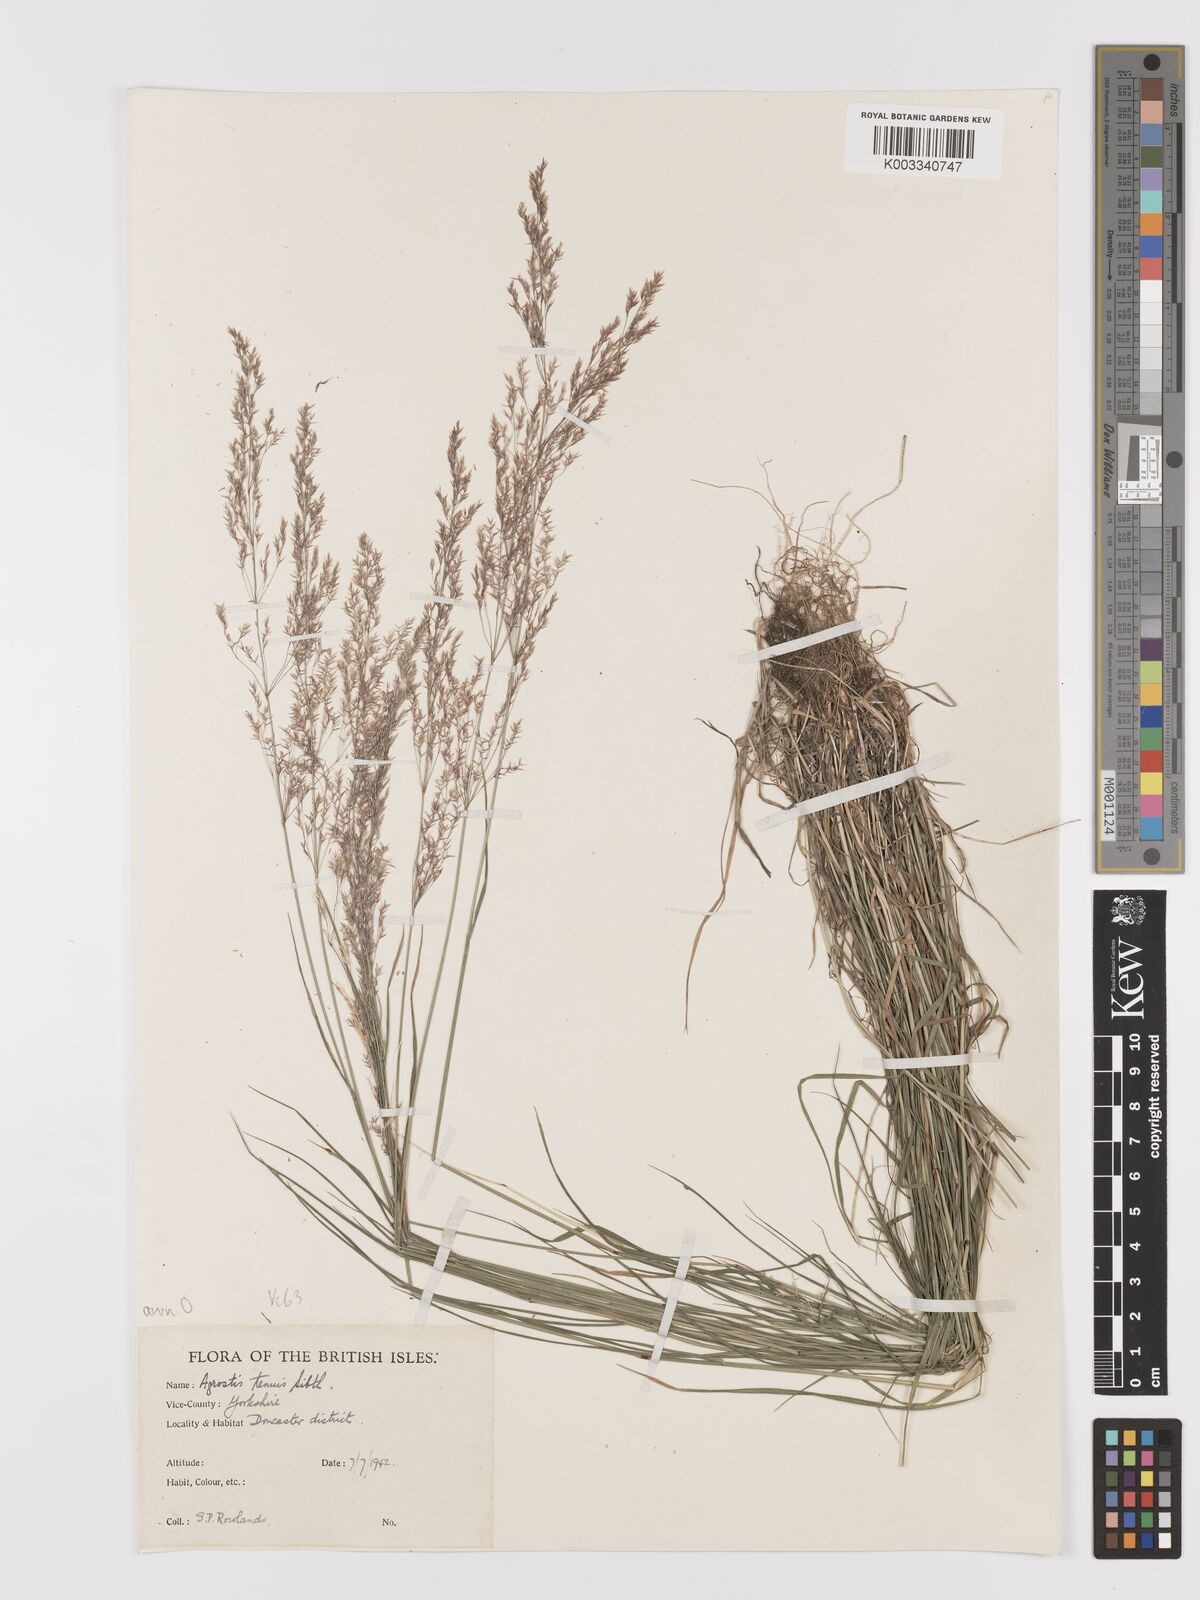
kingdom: Plantae
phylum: Tracheophyta
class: Liliopsida
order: Poales
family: Poaceae
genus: Agrostis
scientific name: Agrostis capillaris
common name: Colonial bentgrass
